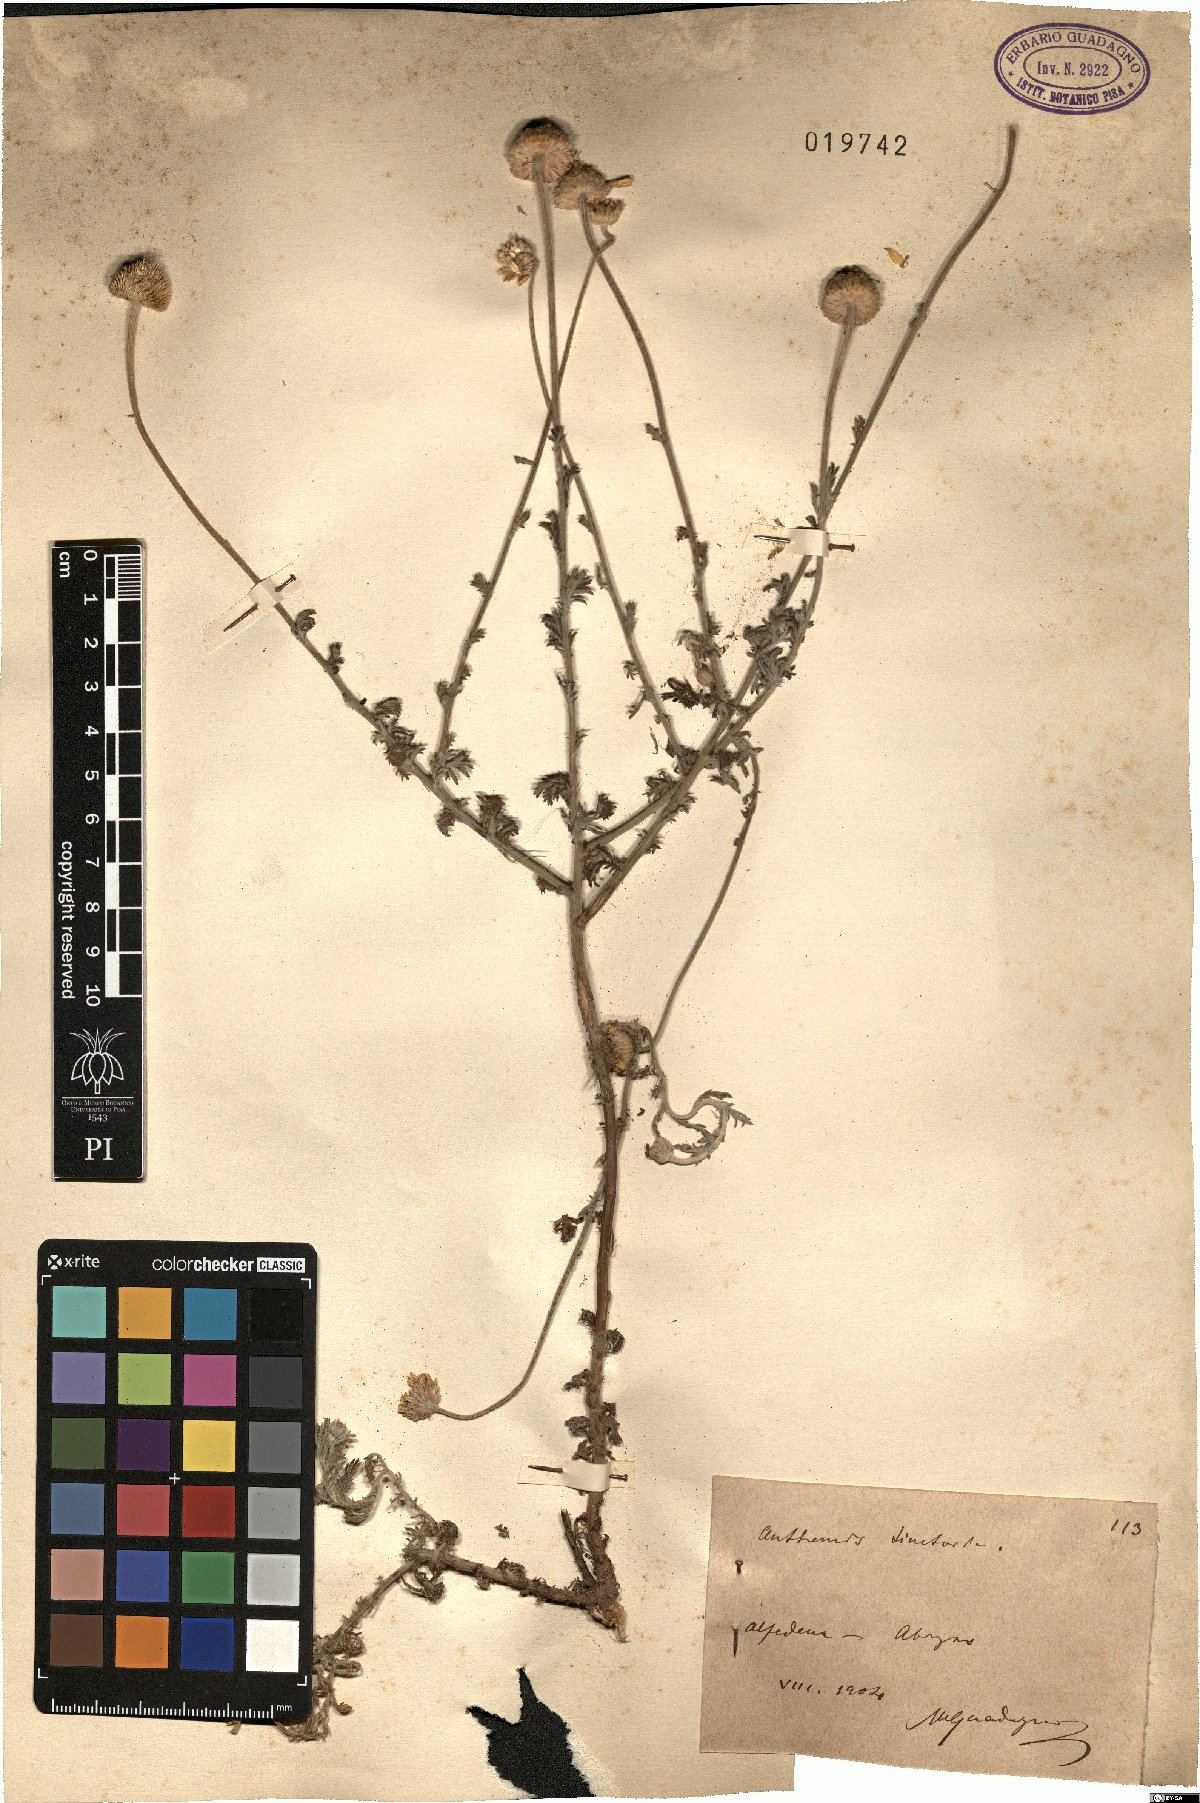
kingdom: Plantae
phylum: Tracheophyta
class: Magnoliopsida
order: Asterales
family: Asteraceae
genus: Cota
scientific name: Cota tinctoria
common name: Golden chamomile
